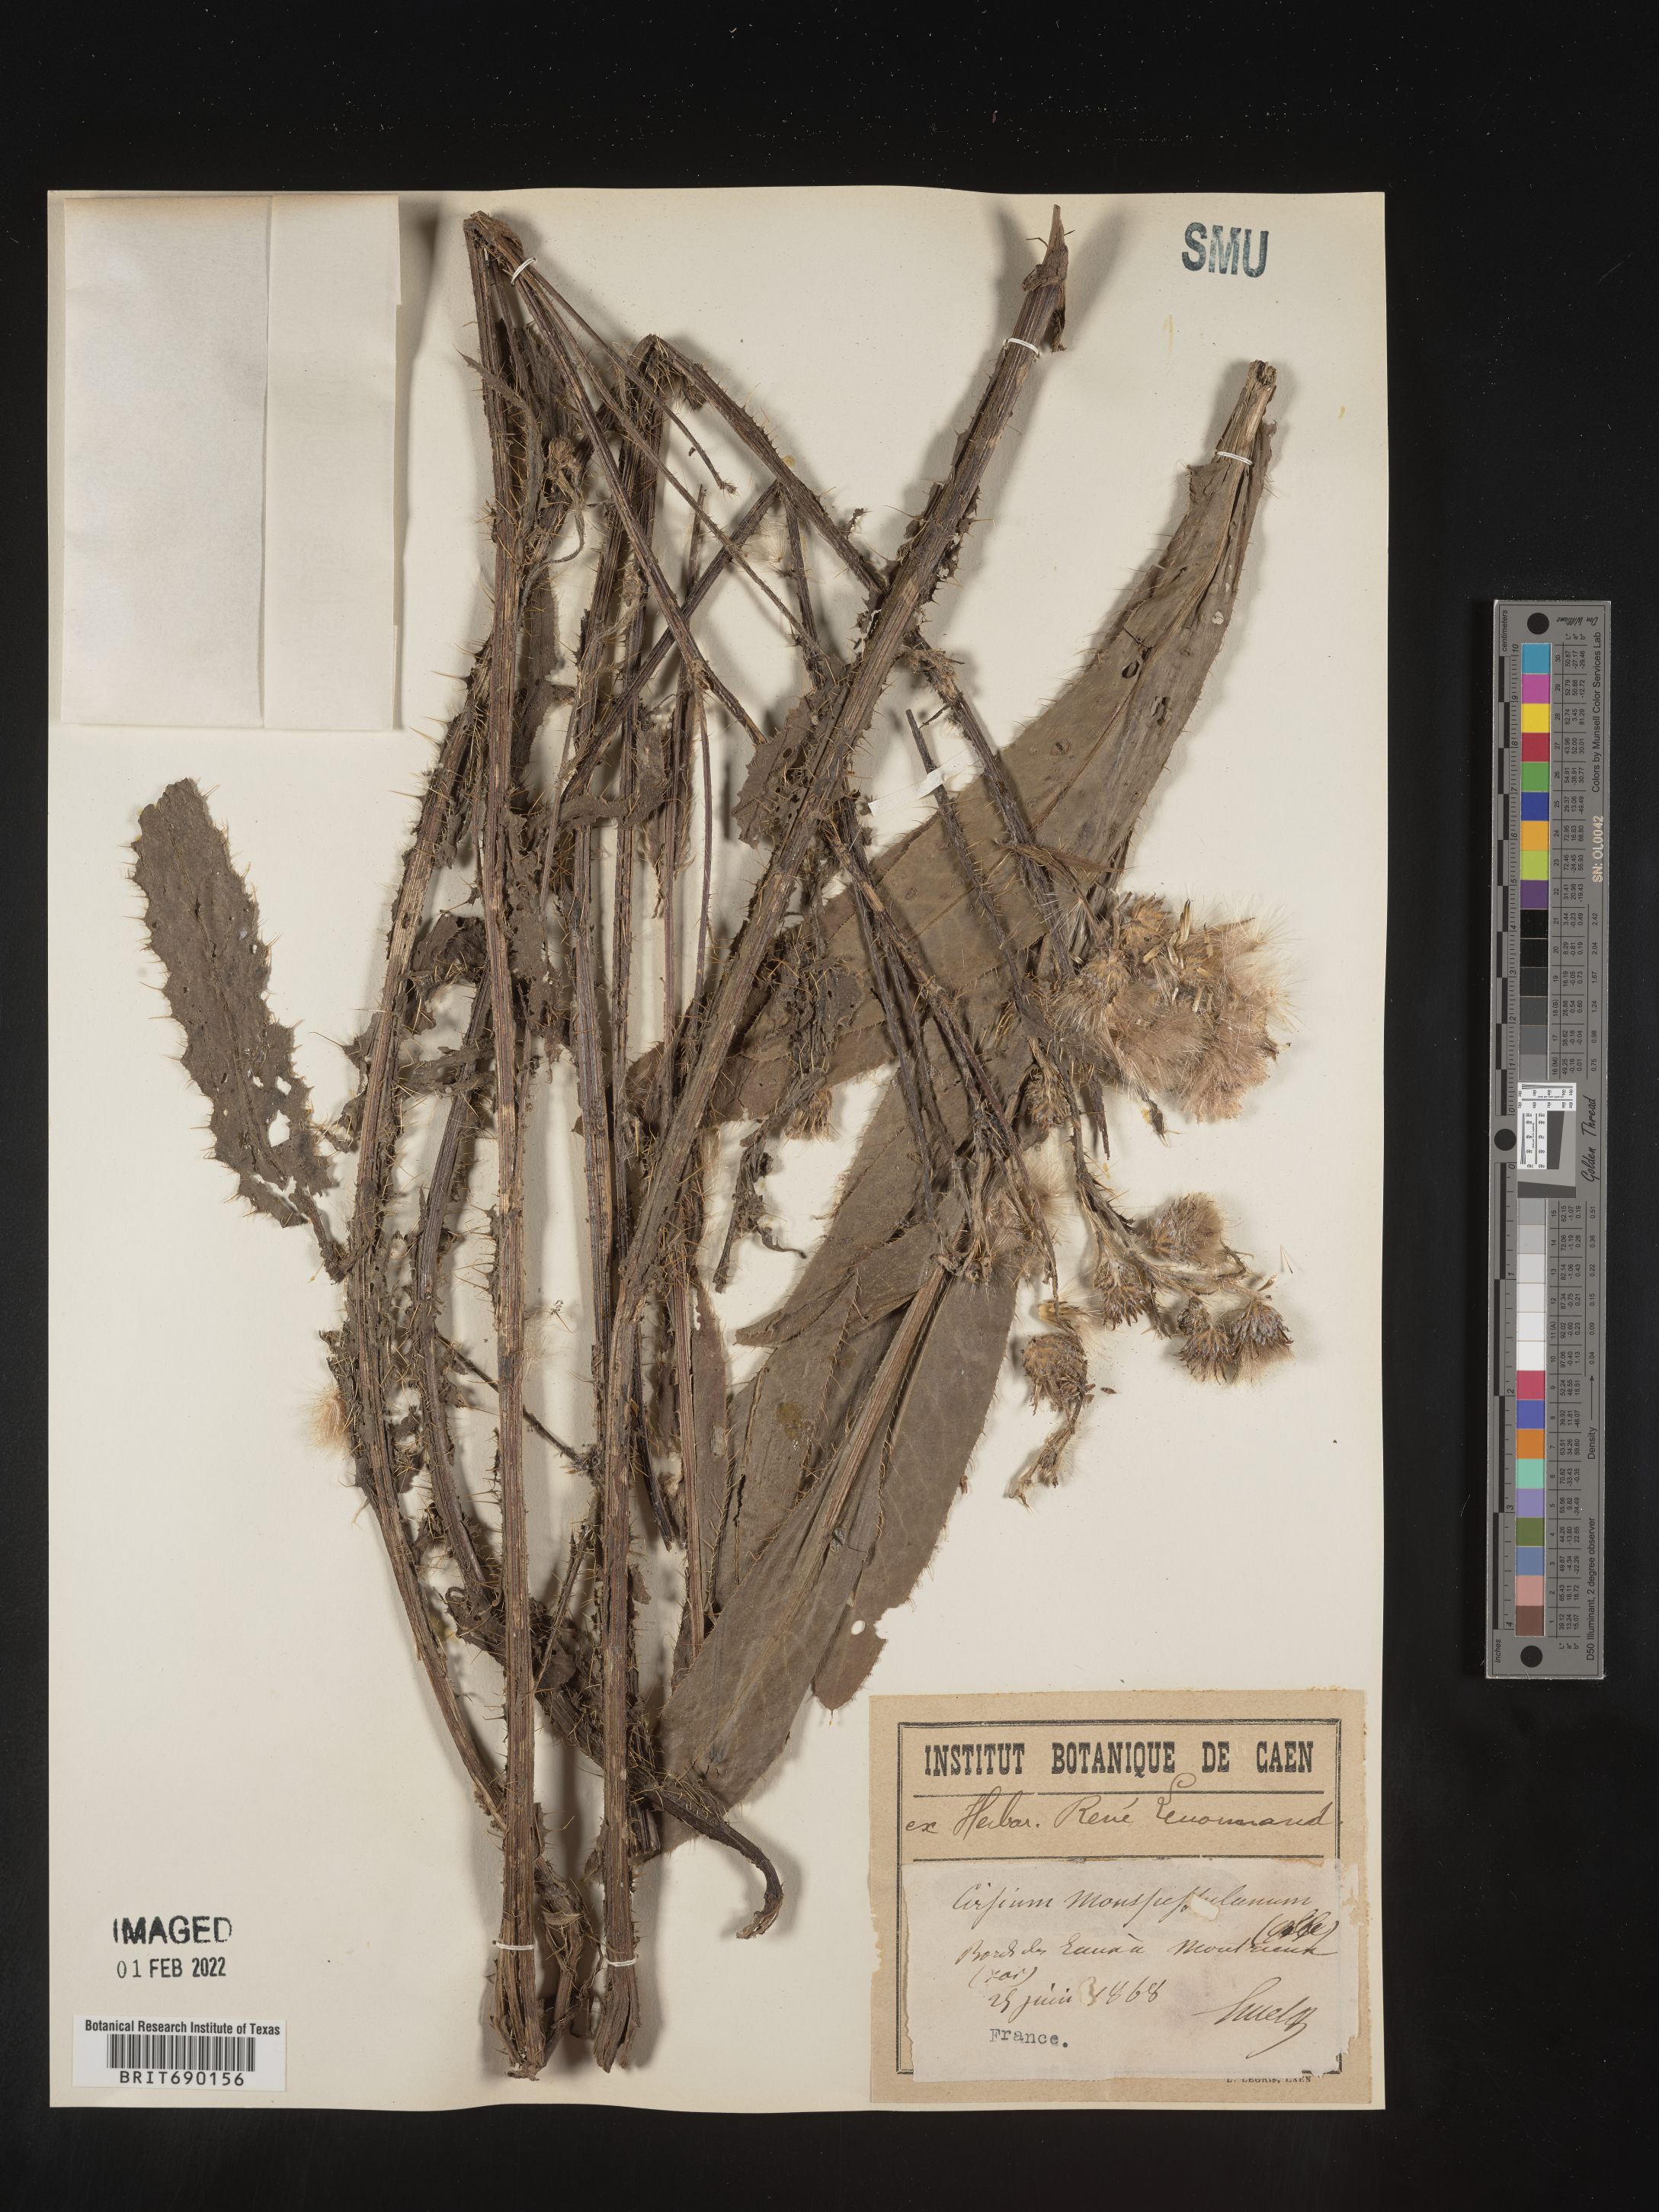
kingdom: Plantae
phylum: Tracheophyta
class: Magnoliopsida
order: Asterales
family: Asteraceae
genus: Cirsium
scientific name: Cirsium
